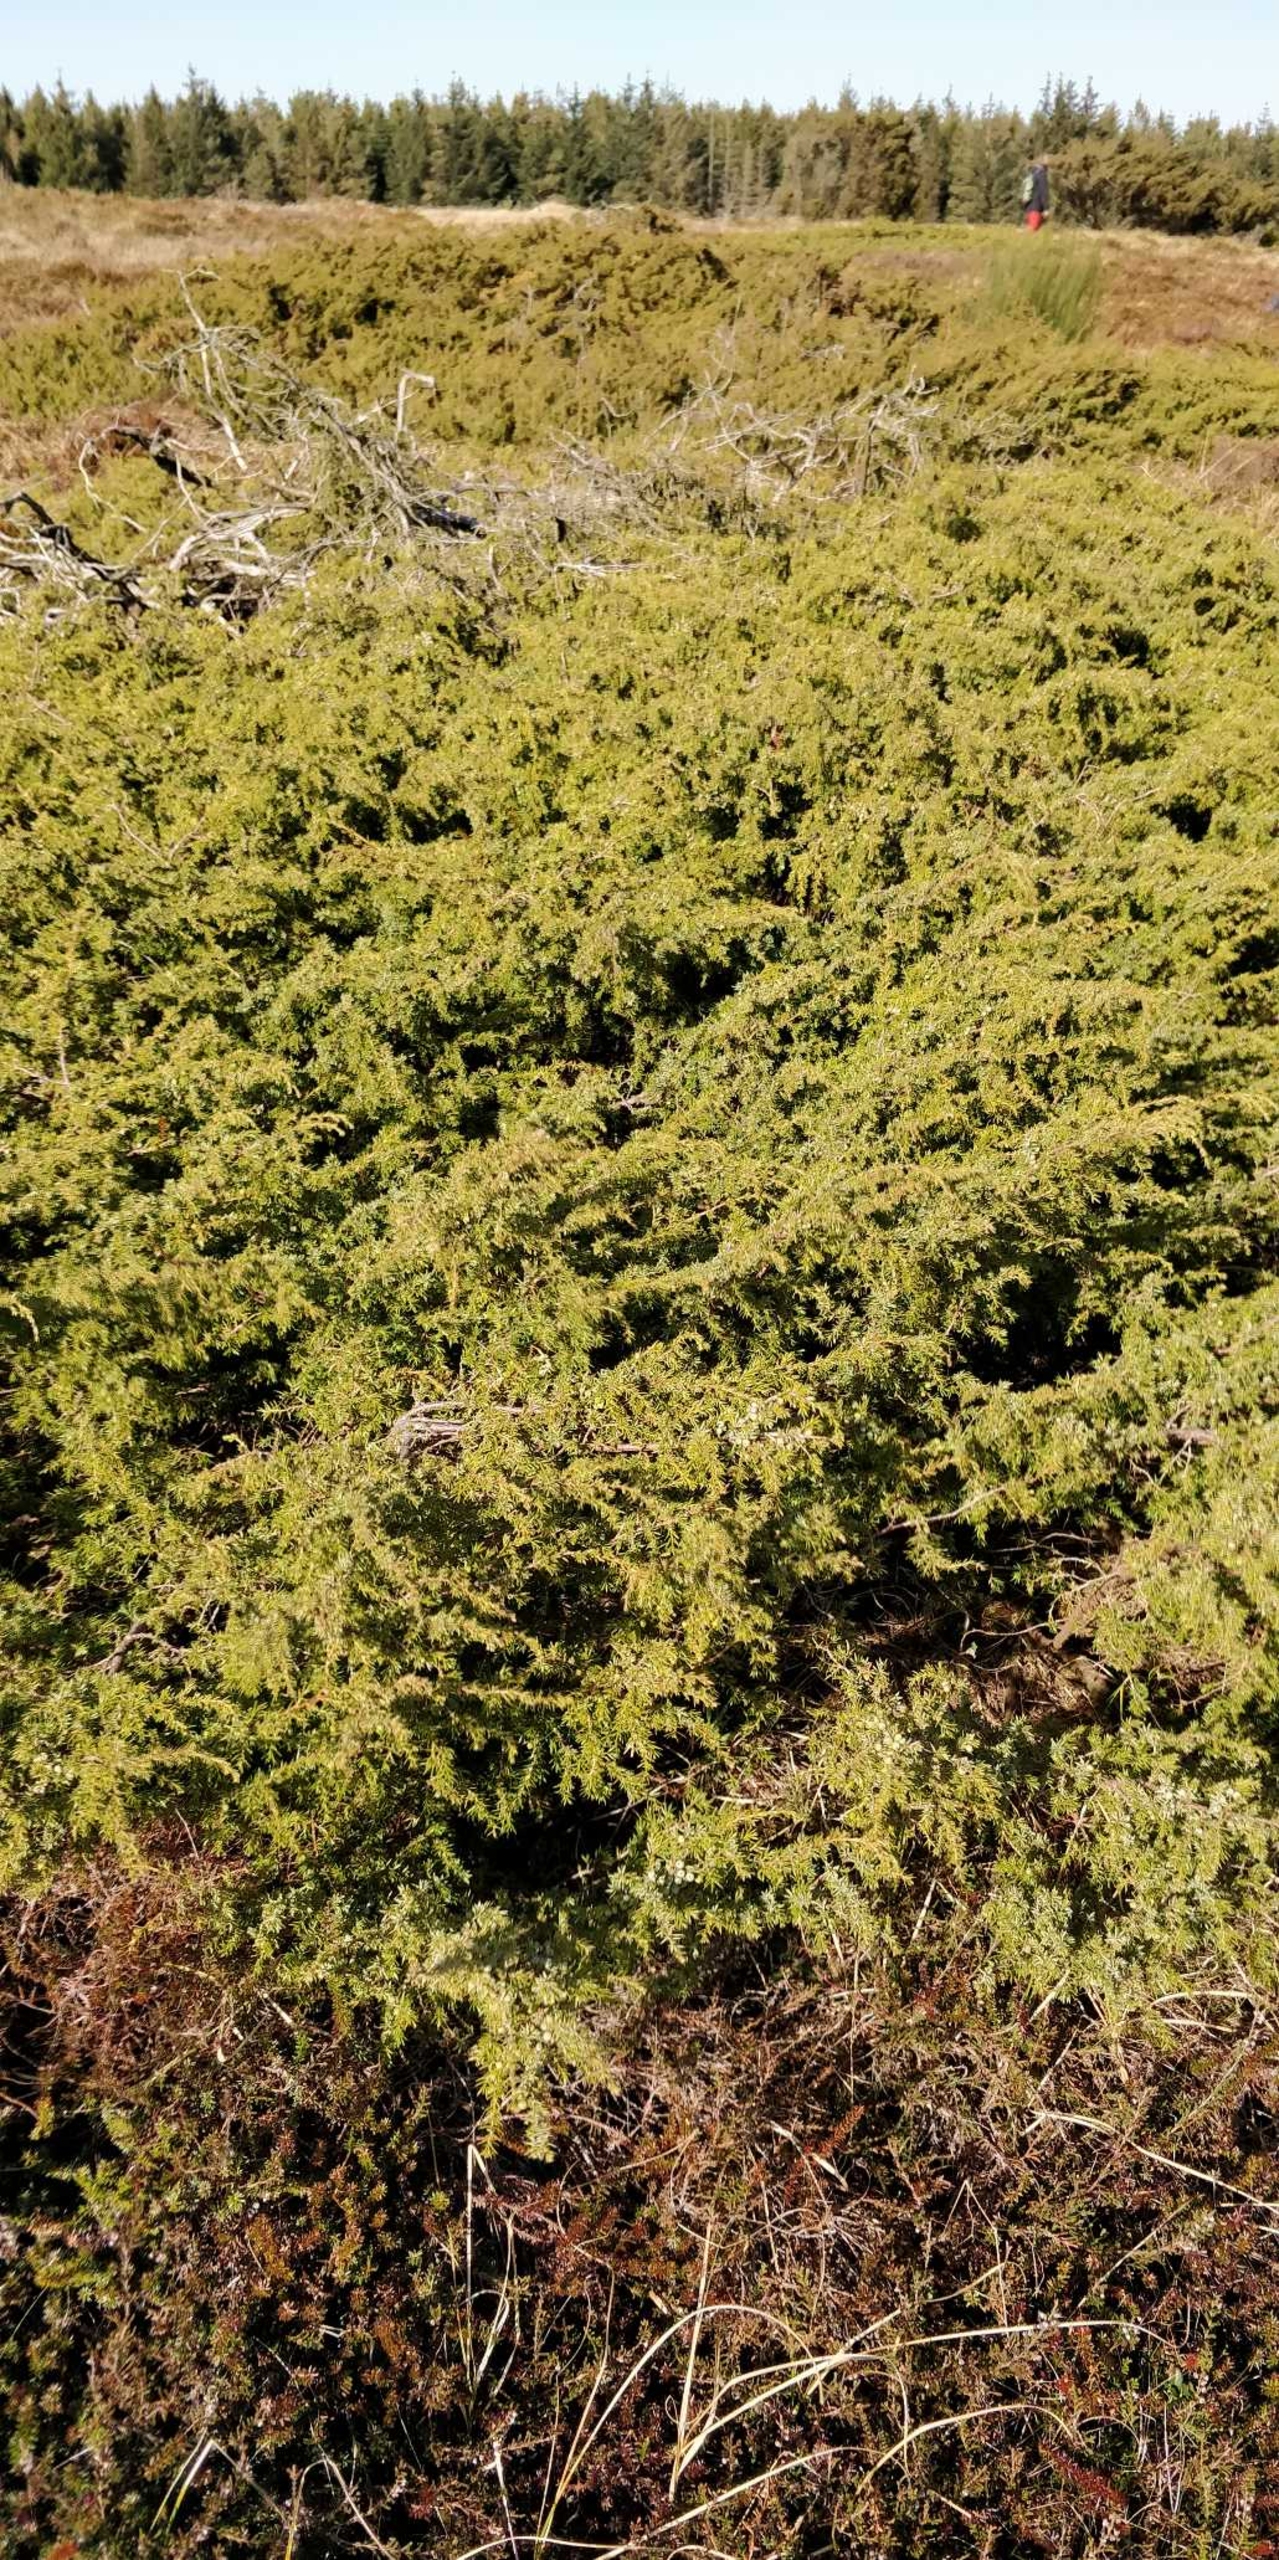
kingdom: Plantae
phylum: Tracheophyta
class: Pinopsida
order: Pinales
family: Cupressaceae
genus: Juniperus
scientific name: Juniperus communis
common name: Almindelig ene
